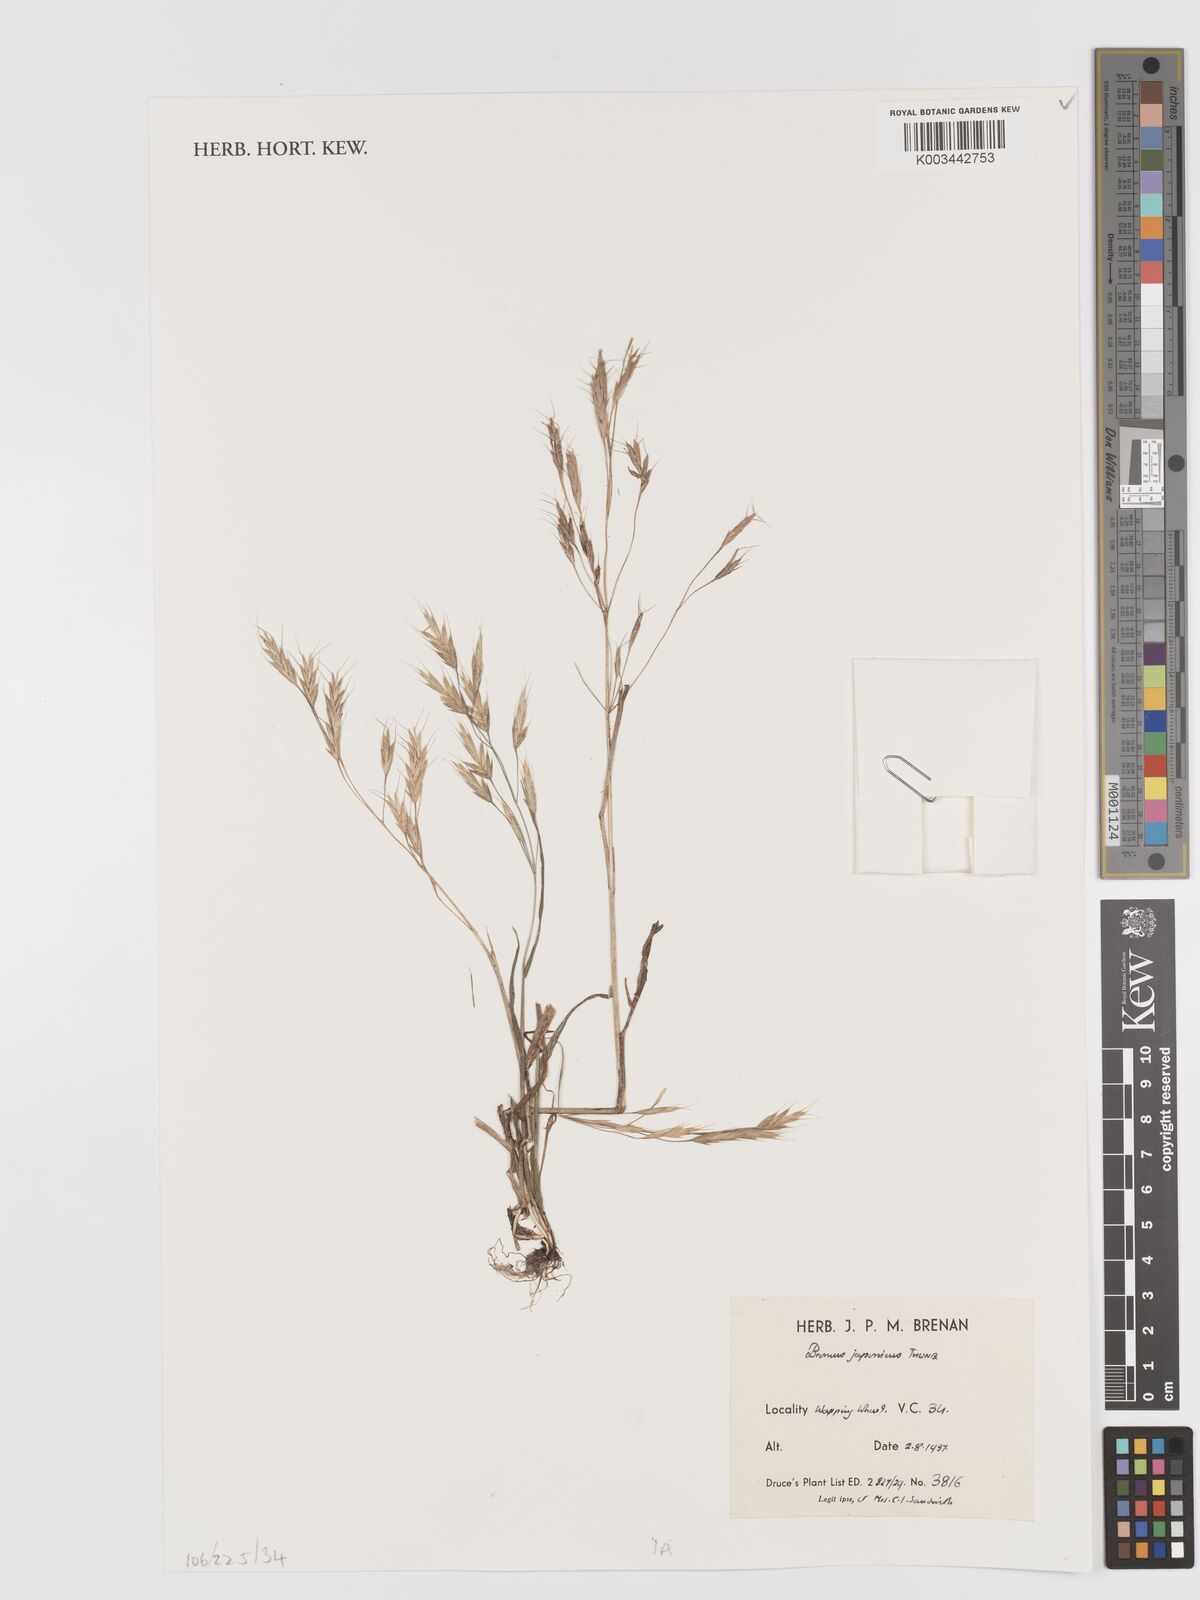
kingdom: Plantae
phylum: Tracheophyta
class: Liliopsida
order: Poales
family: Poaceae
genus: Bromus
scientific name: Bromus japonicus
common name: Japanese brome
